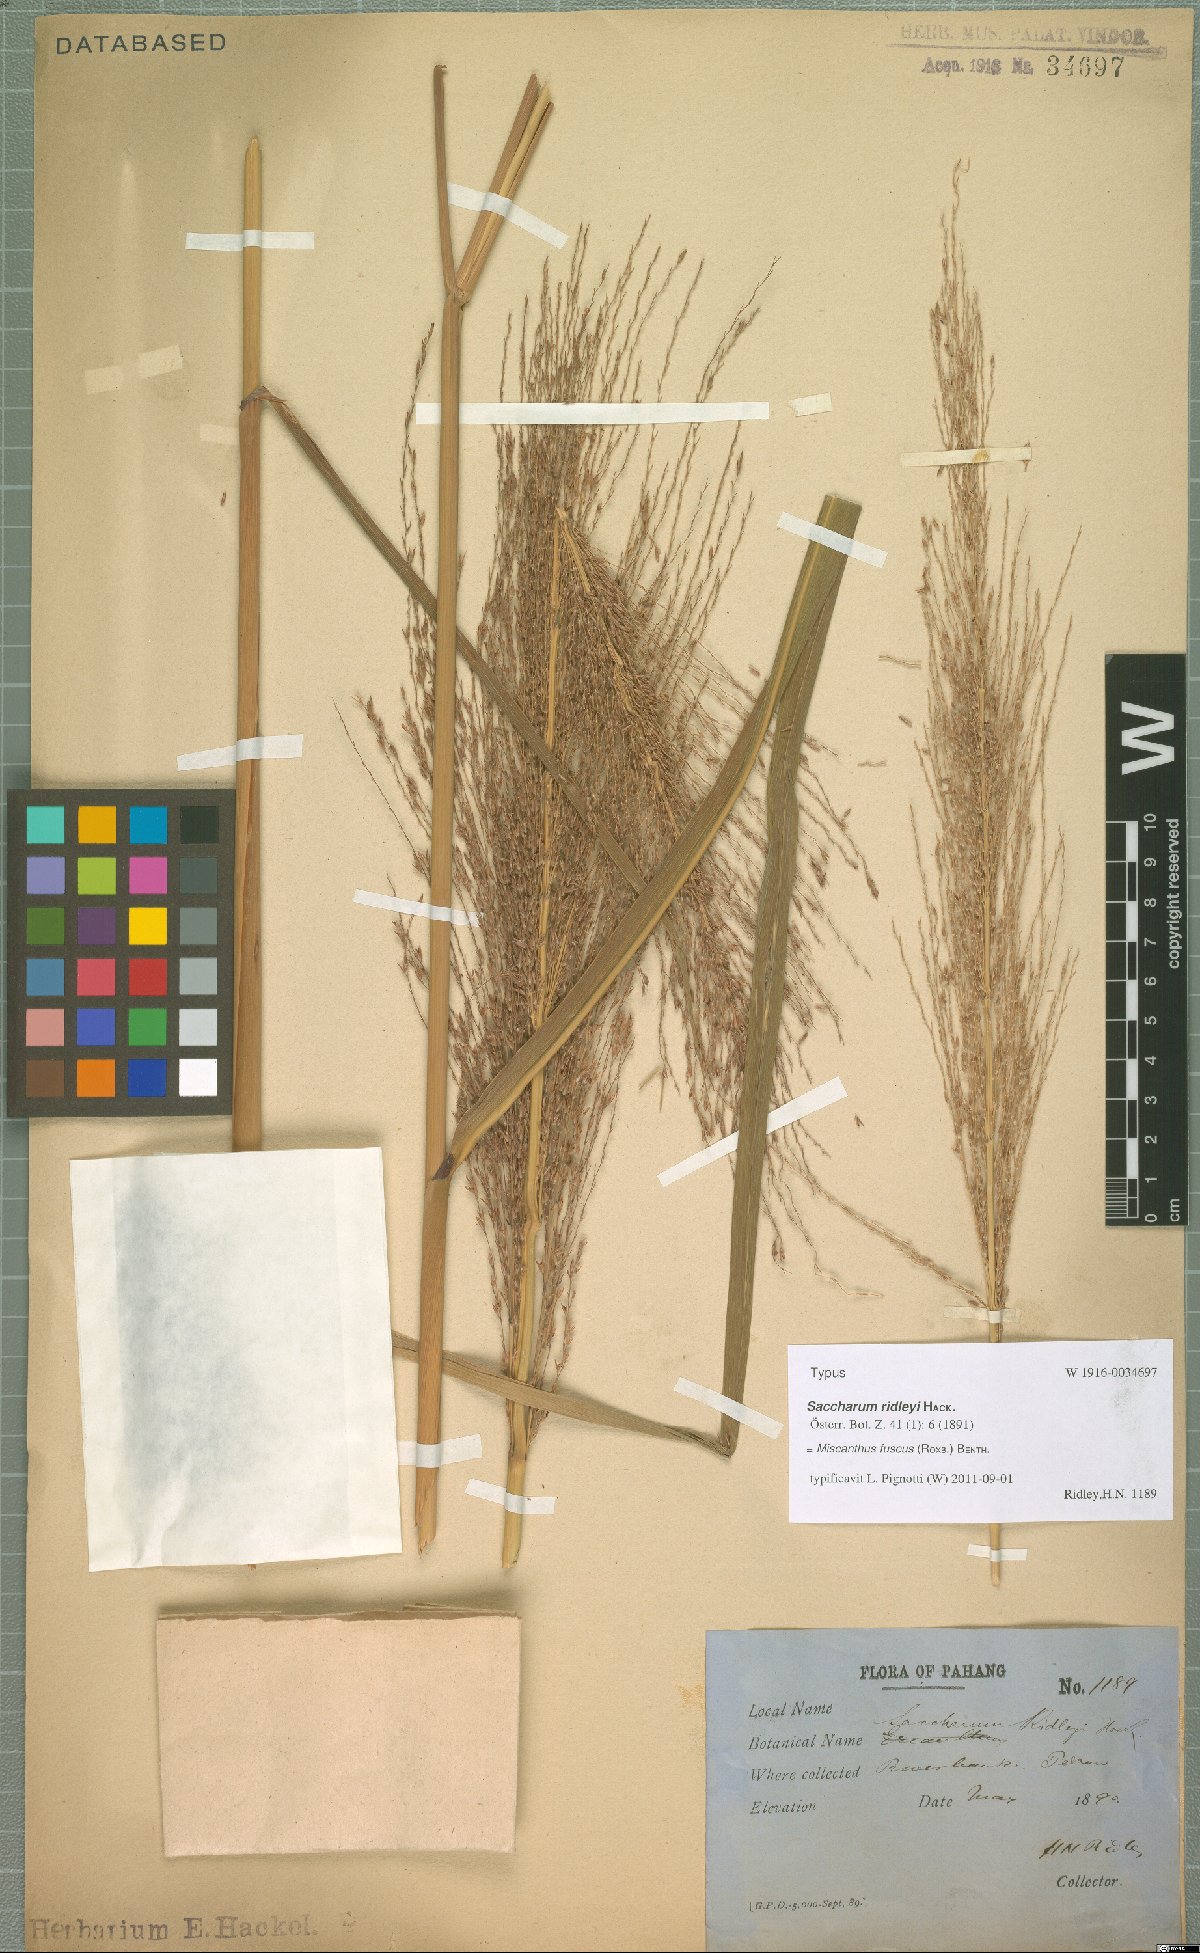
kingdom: Plantae
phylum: Tracheophyta
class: Liliopsida
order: Poales
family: Poaceae
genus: Miscanthus
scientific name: Miscanthus fuscus
